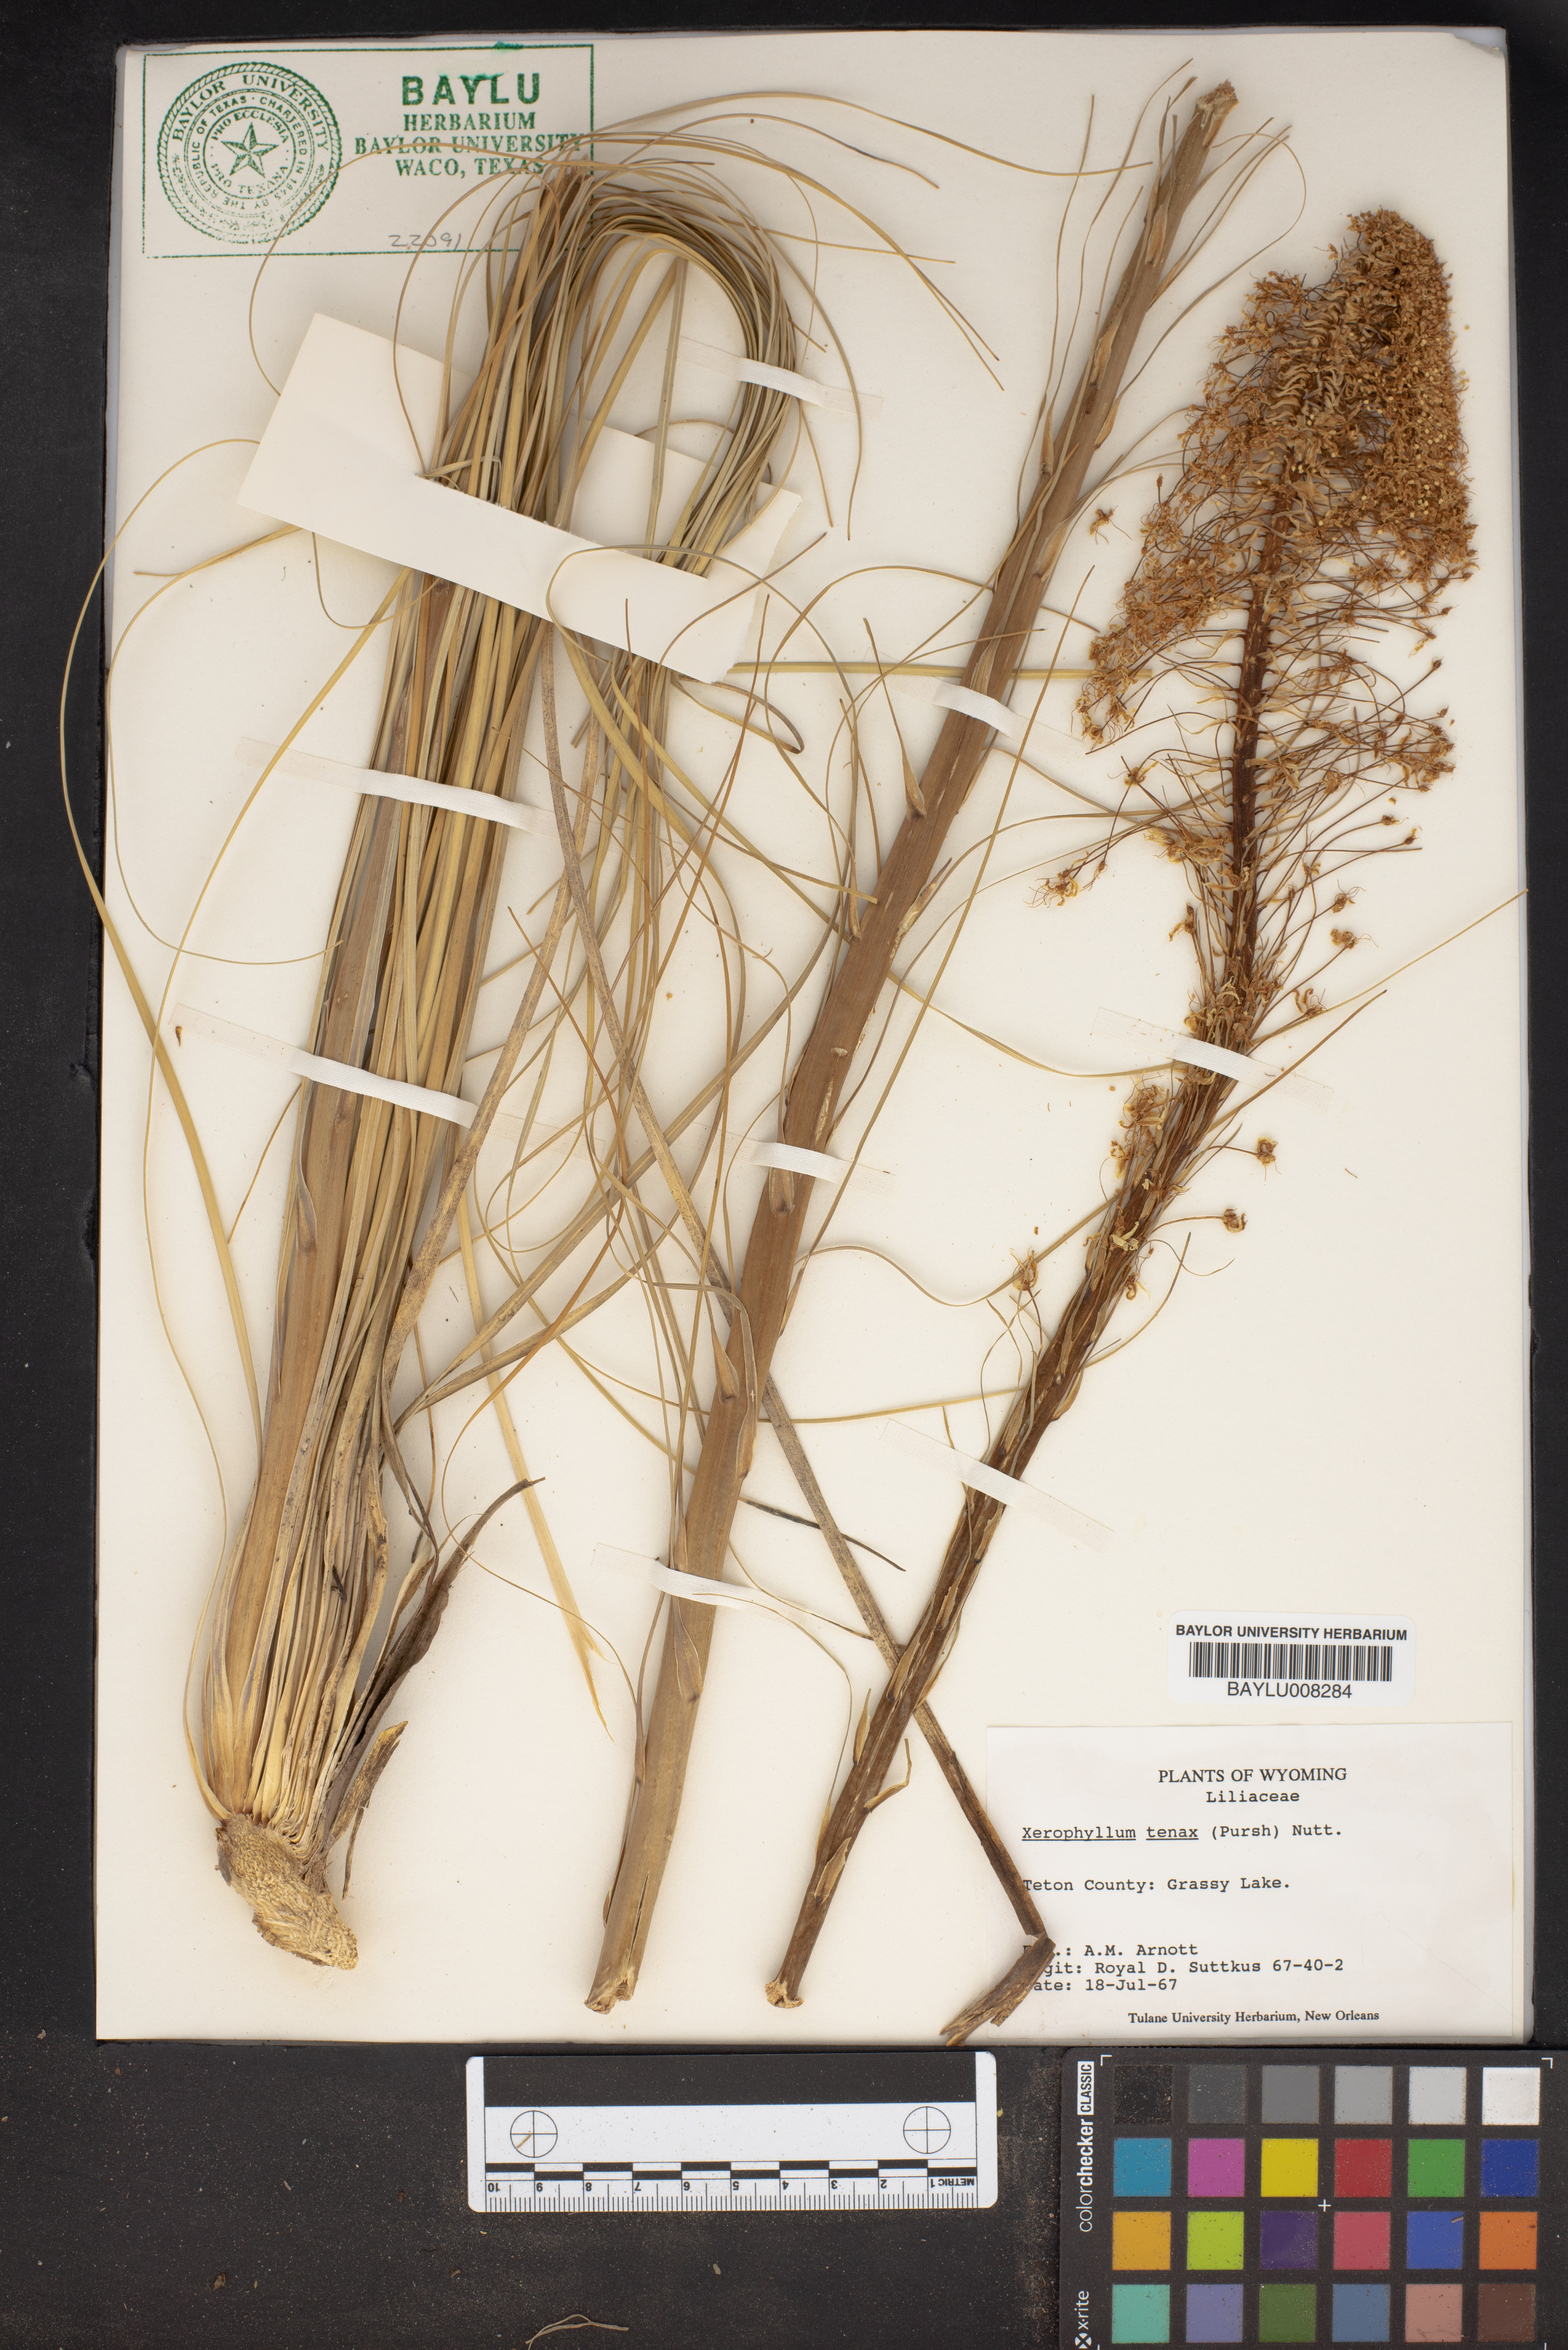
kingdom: Plantae
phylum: Tracheophyta
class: Liliopsida
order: Liliales
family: Melanthiaceae
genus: Xerophyllum
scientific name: Xerophyllum tenax
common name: Bear-grass
